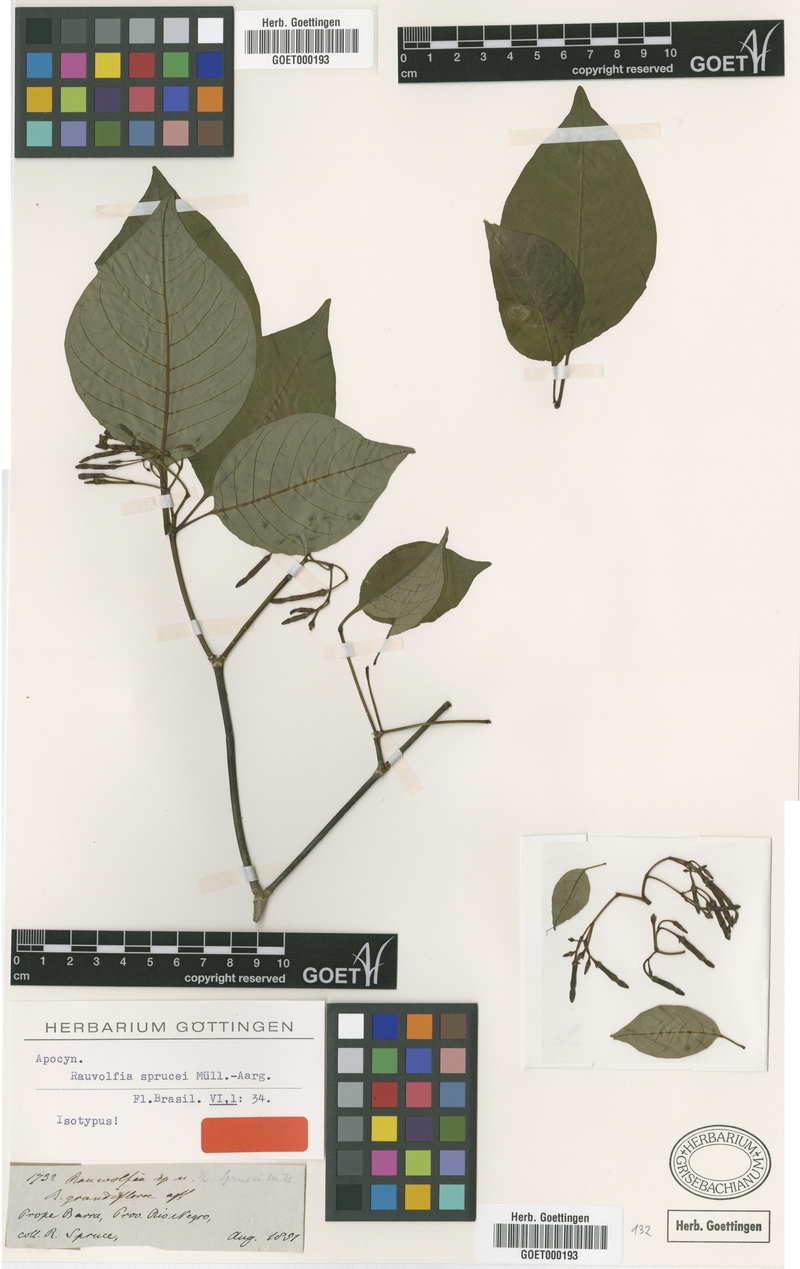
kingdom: Plantae
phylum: Tracheophyta
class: Magnoliopsida
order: Gentianales
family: Apocynaceae
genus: Rauvolfia
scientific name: Rauvolfia sprucei
